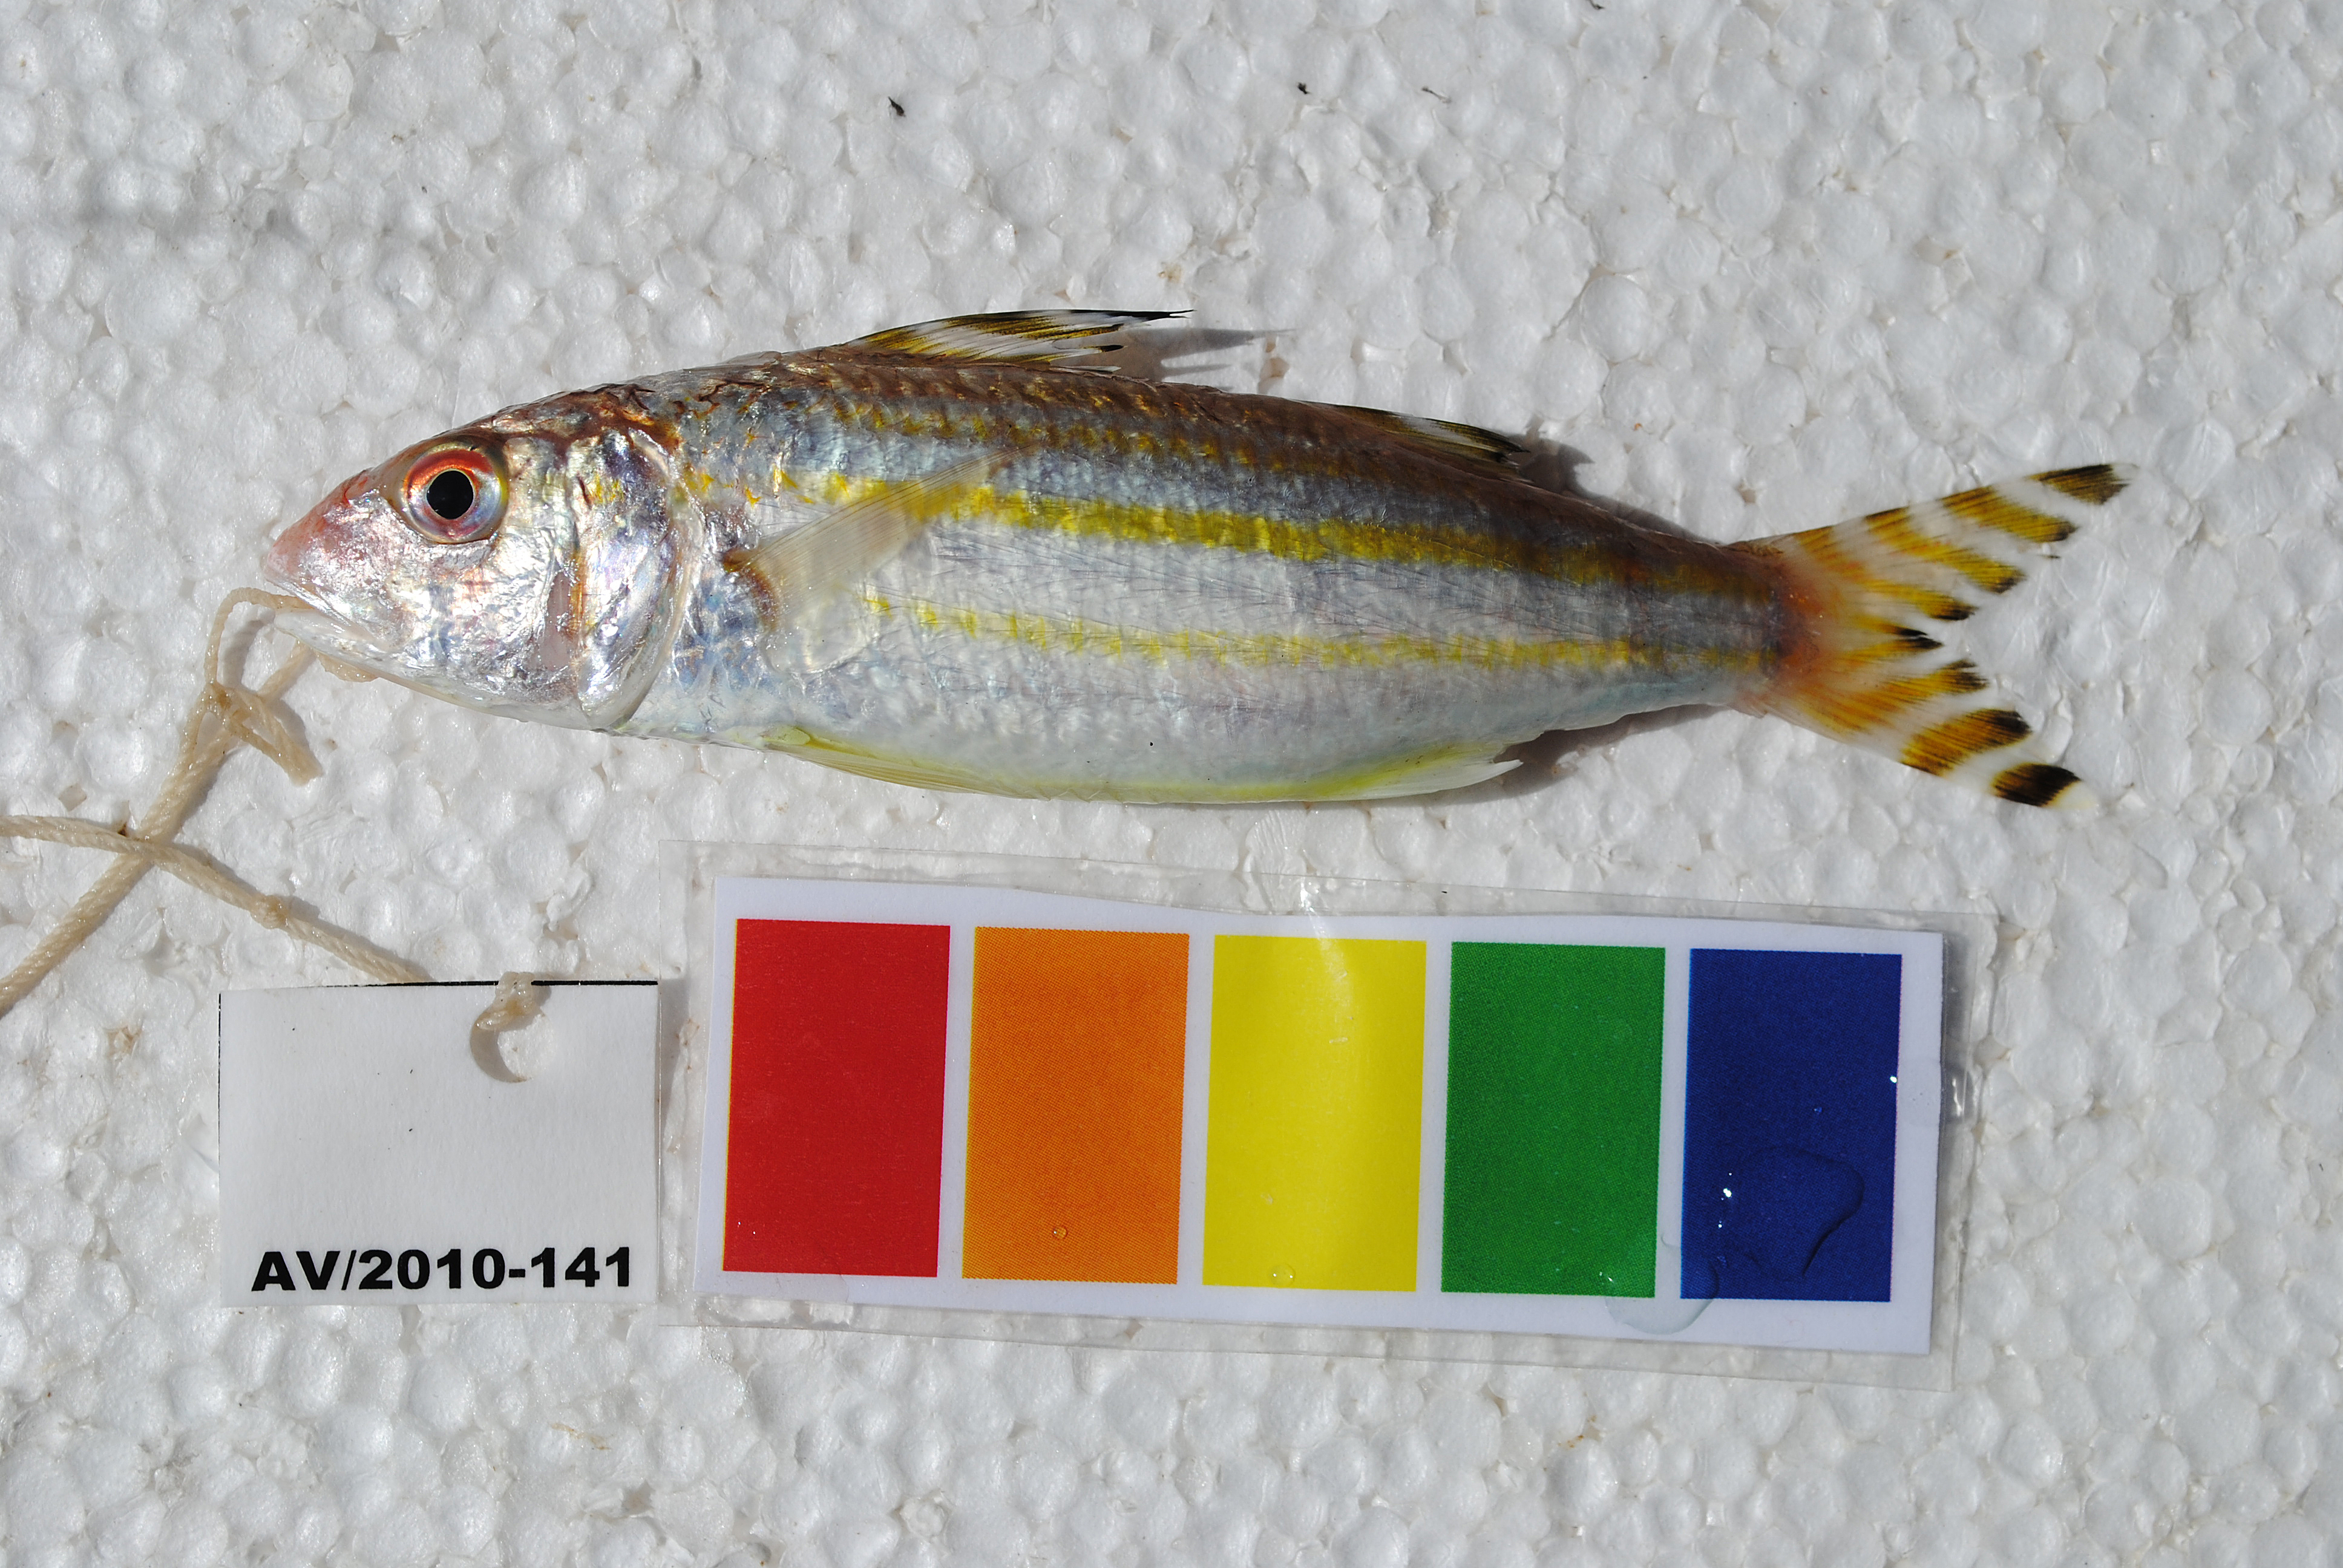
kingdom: Animalia
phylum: Chordata
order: Perciformes
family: Mullidae
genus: Upeneus
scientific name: Upeneus suahelicus
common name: Swahili goatfish
